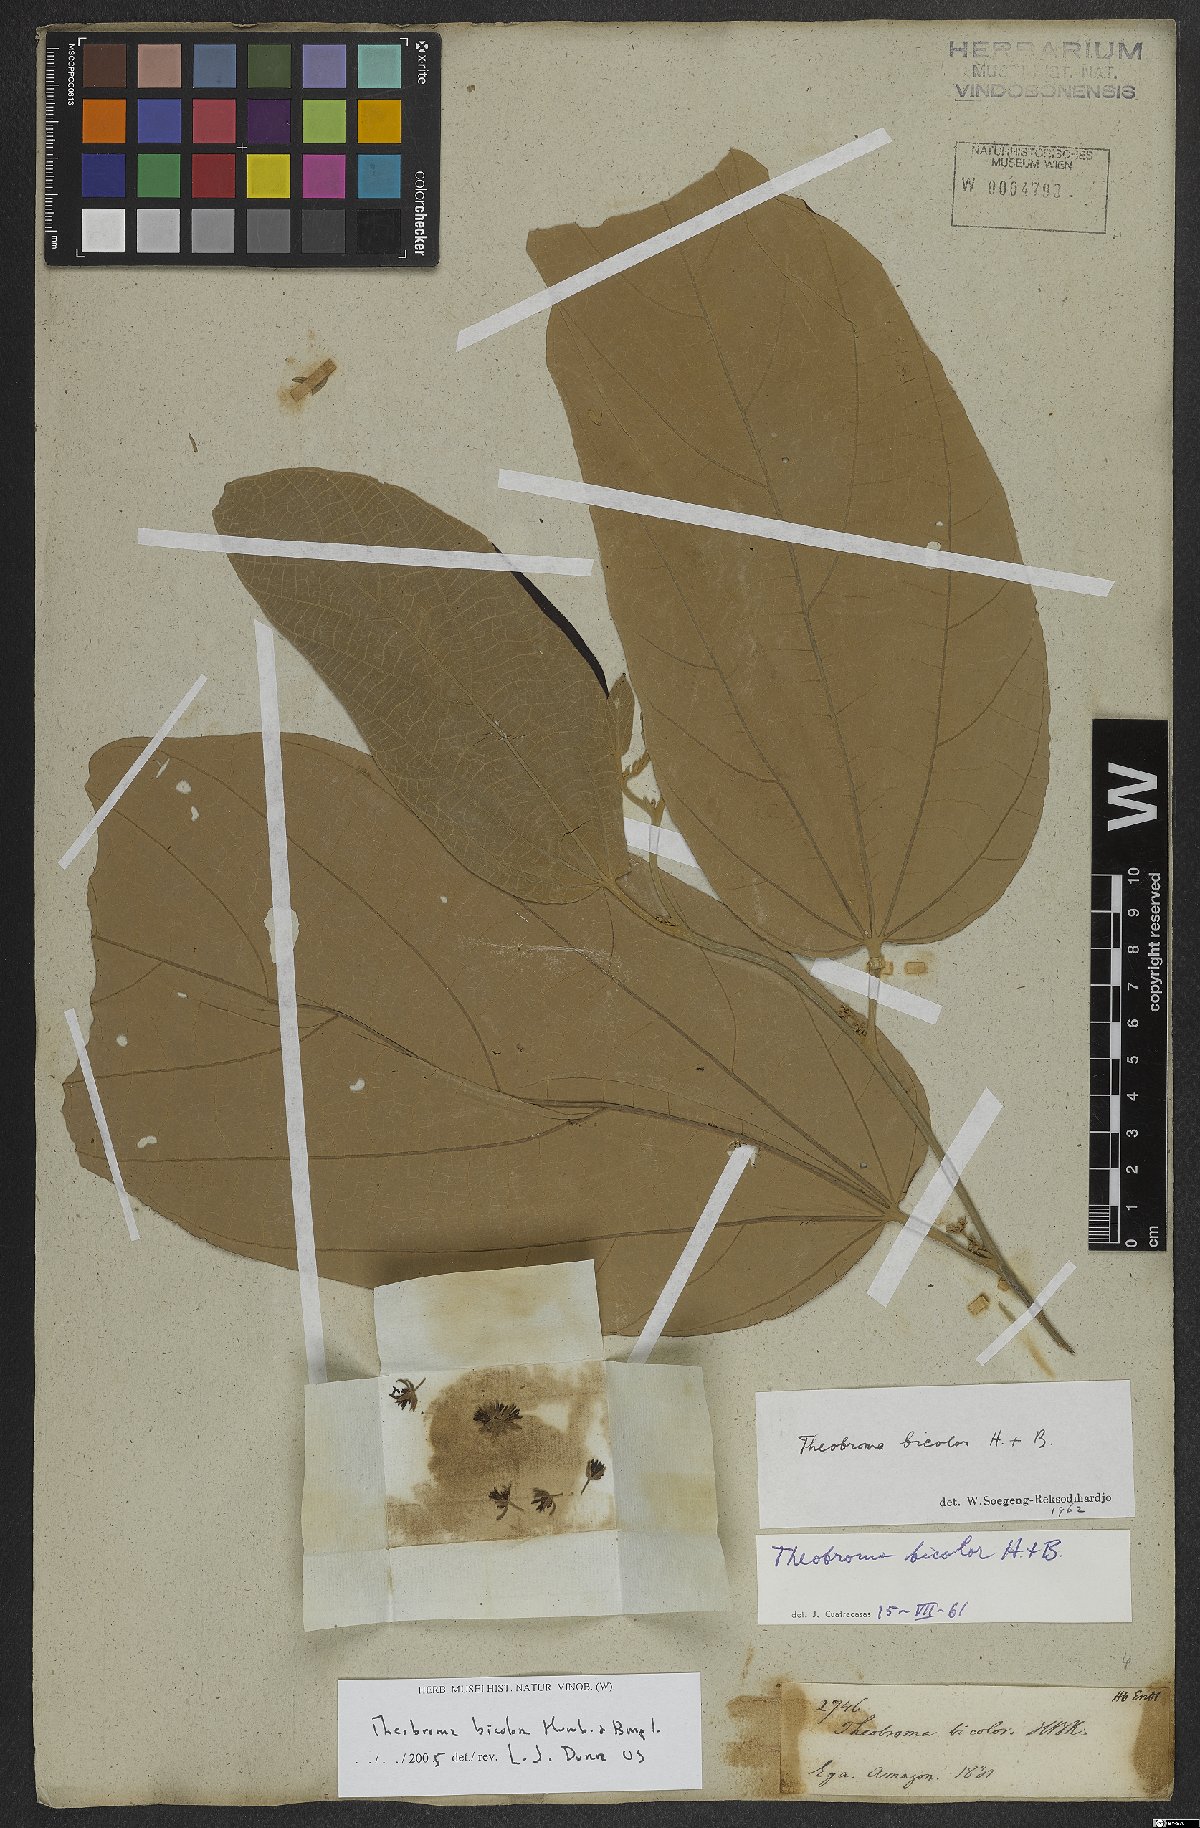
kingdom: Plantae
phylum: Tracheophyta
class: Magnoliopsida
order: Malvales
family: Malvaceae
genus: Theobroma
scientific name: Theobroma bicolor
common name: Macambo tree
